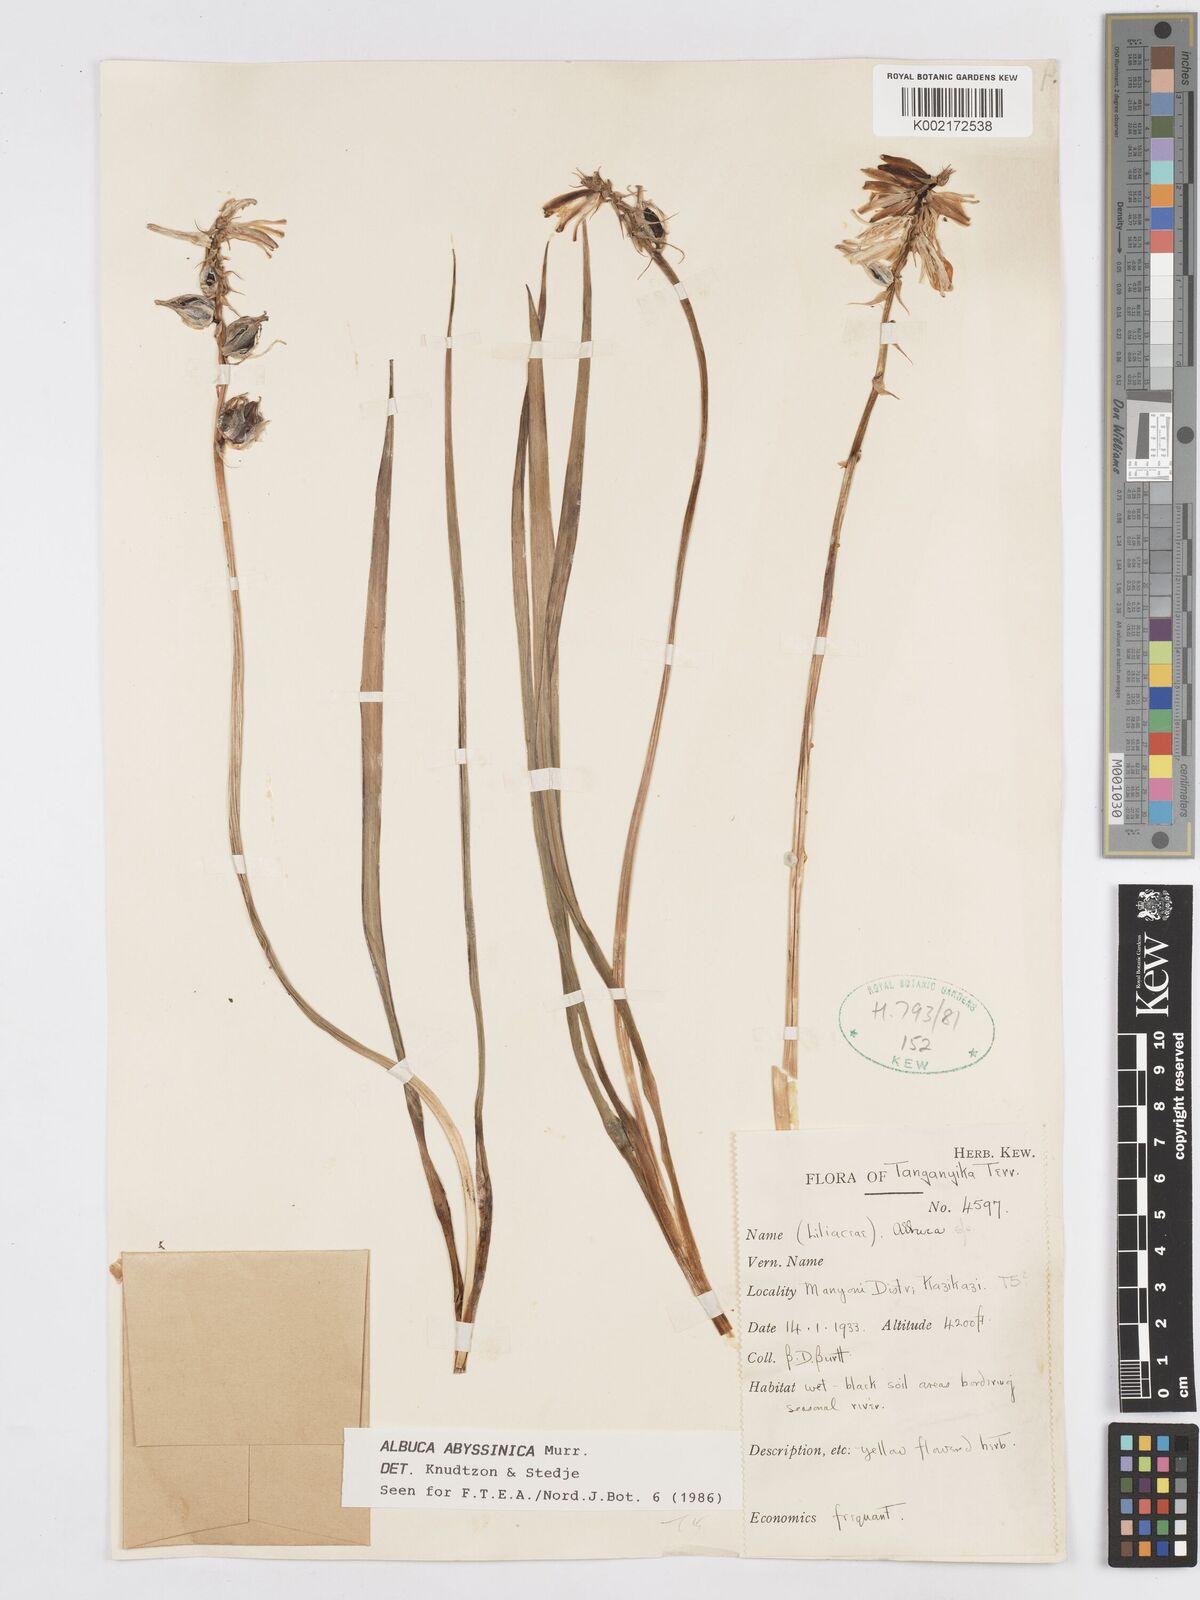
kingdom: Plantae
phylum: Tracheophyta
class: Liliopsida
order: Asparagales
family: Asparagaceae
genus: Albuca
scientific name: Albuca abyssinica
